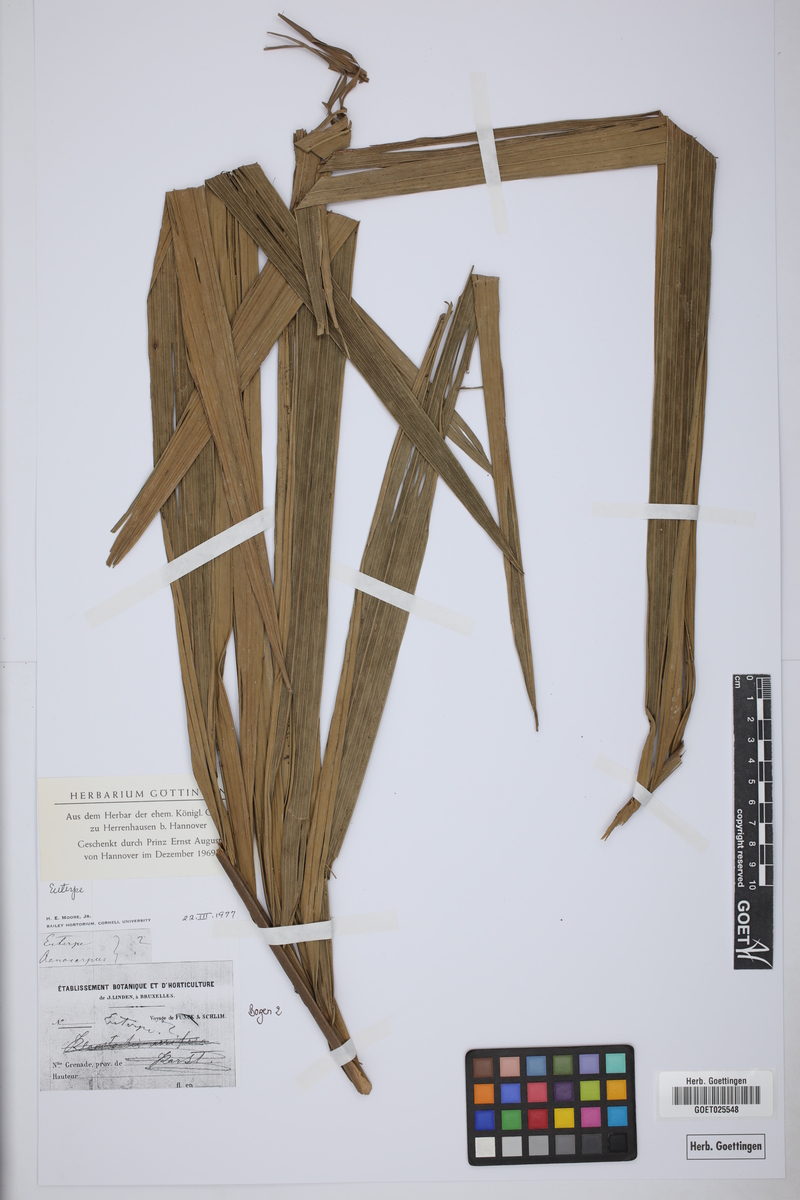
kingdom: Plantae
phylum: Tracheophyta
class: Liliopsida
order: Arecales
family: Arecaceae
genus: Euterpe
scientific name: Euterpe
